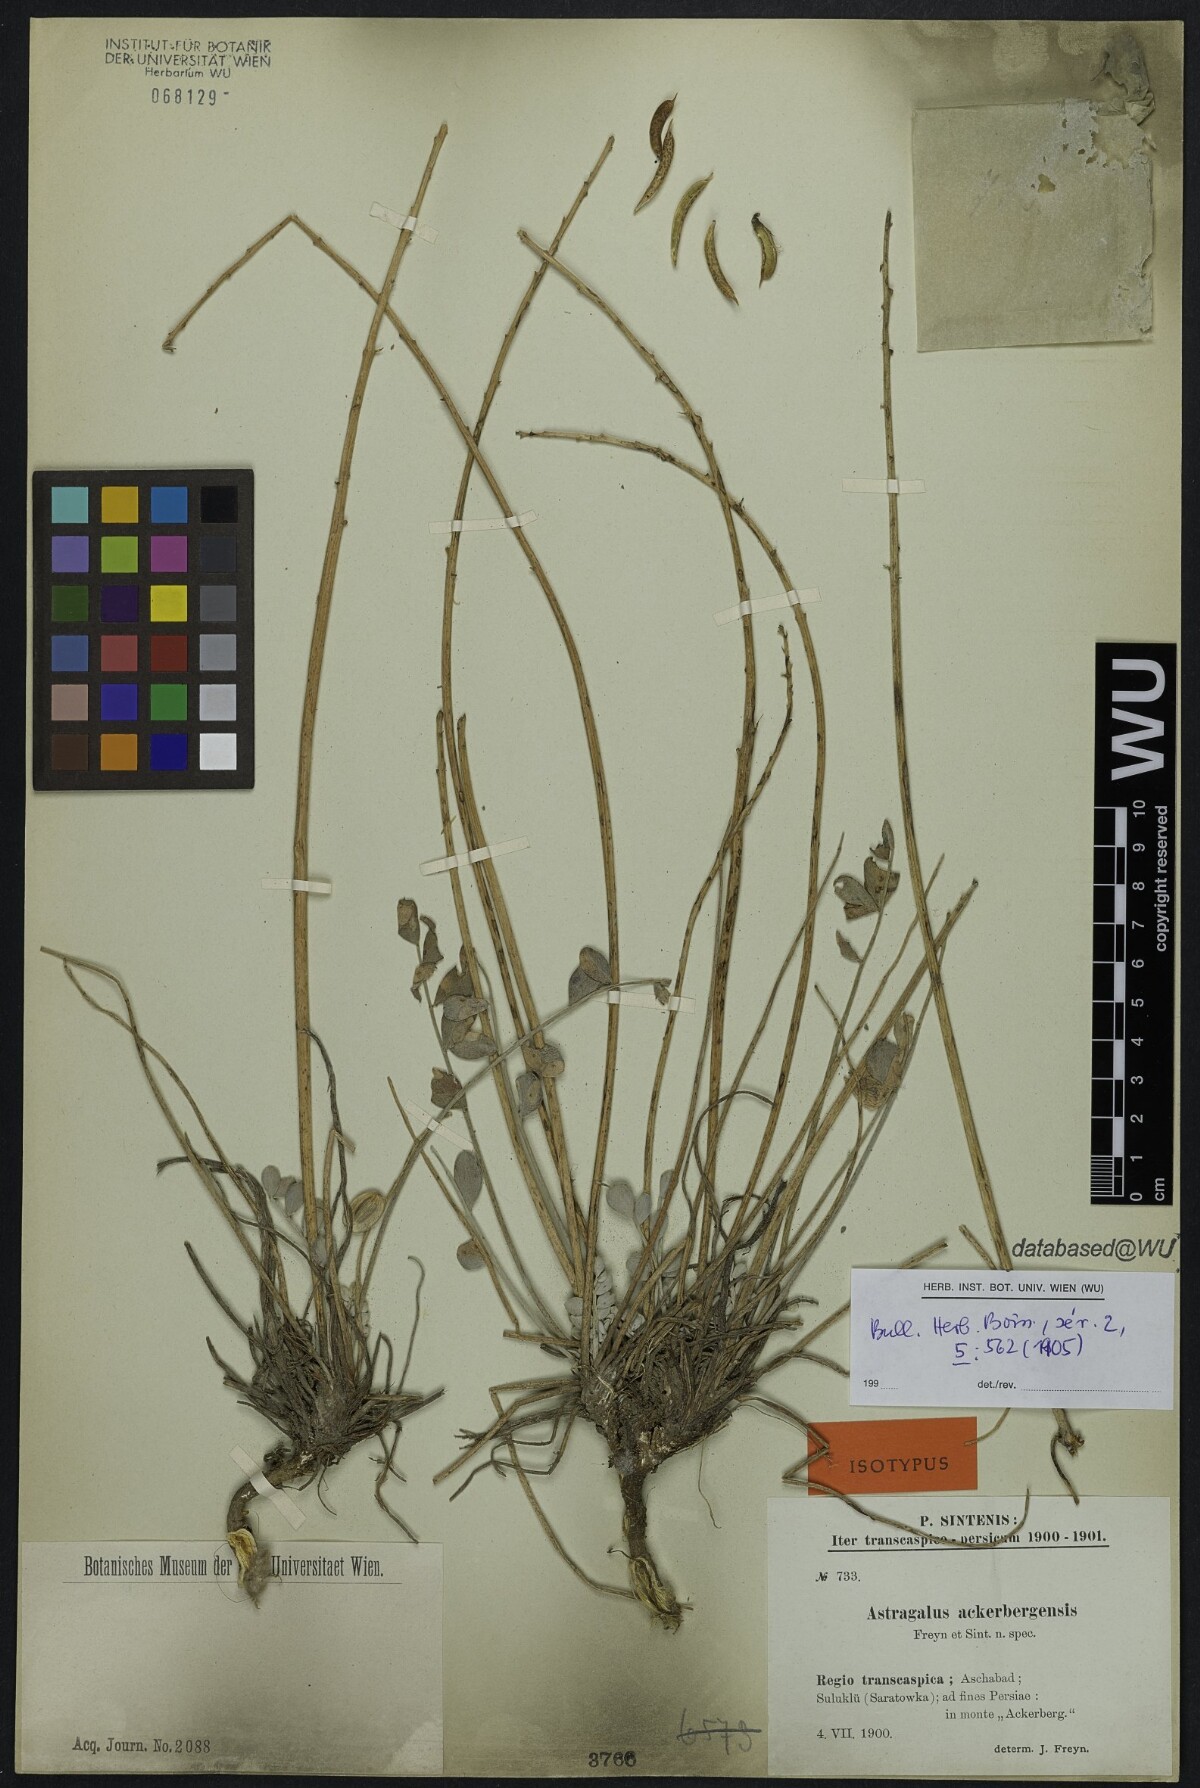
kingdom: Plantae
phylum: Tracheophyta
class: Magnoliopsida
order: Fabales
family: Fabaceae
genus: Astragalus
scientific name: Astragalus ackerbergensis
